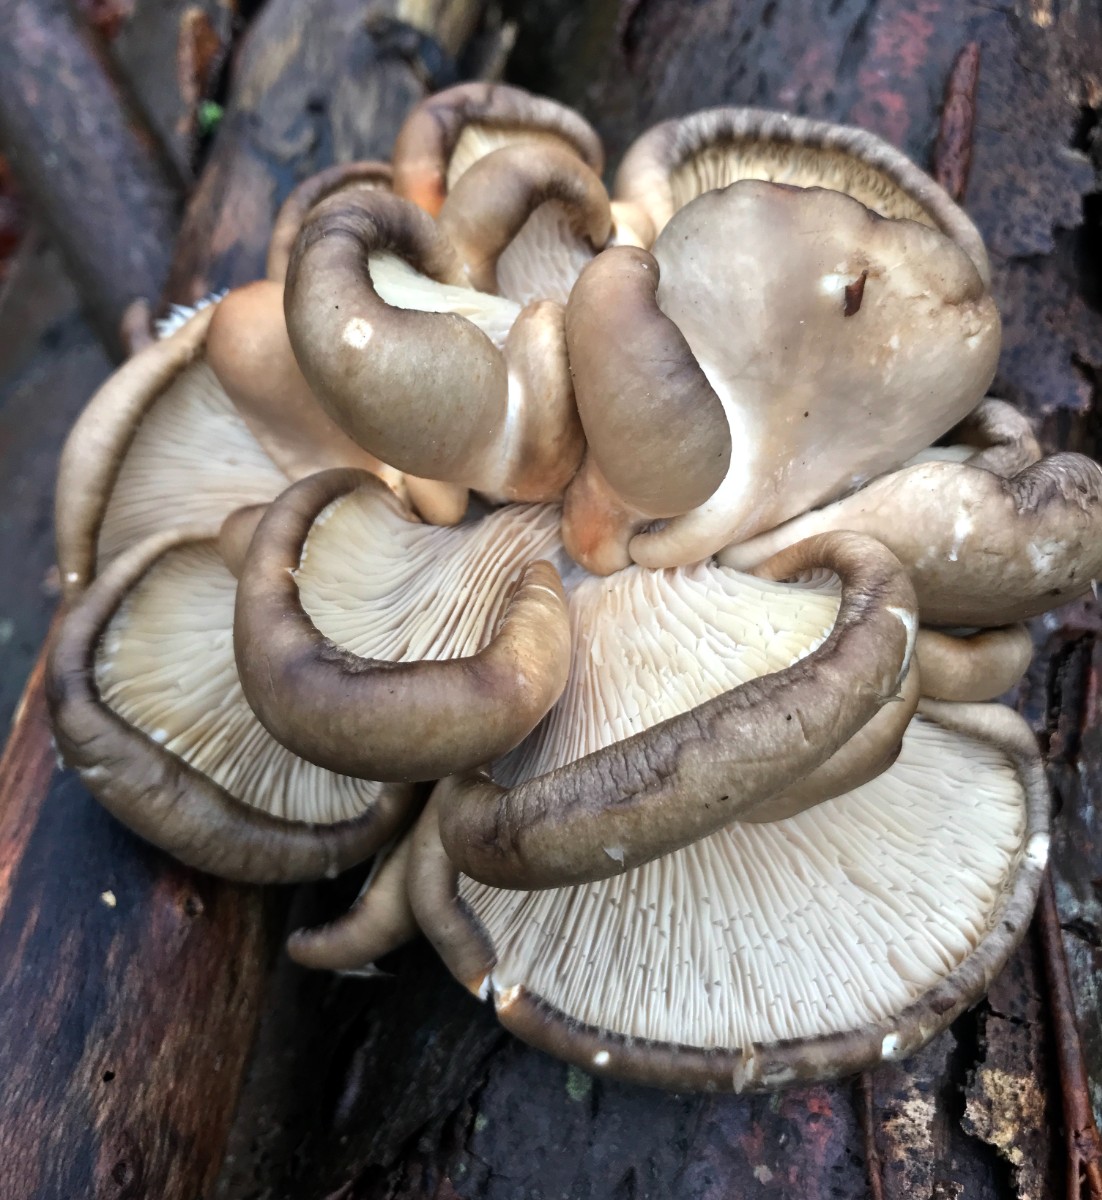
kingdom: Fungi
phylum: Basidiomycota
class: Agaricomycetes
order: Agaricales
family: Pleurotaceae
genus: Pleurotus
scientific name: Pleurotus ostreatus
